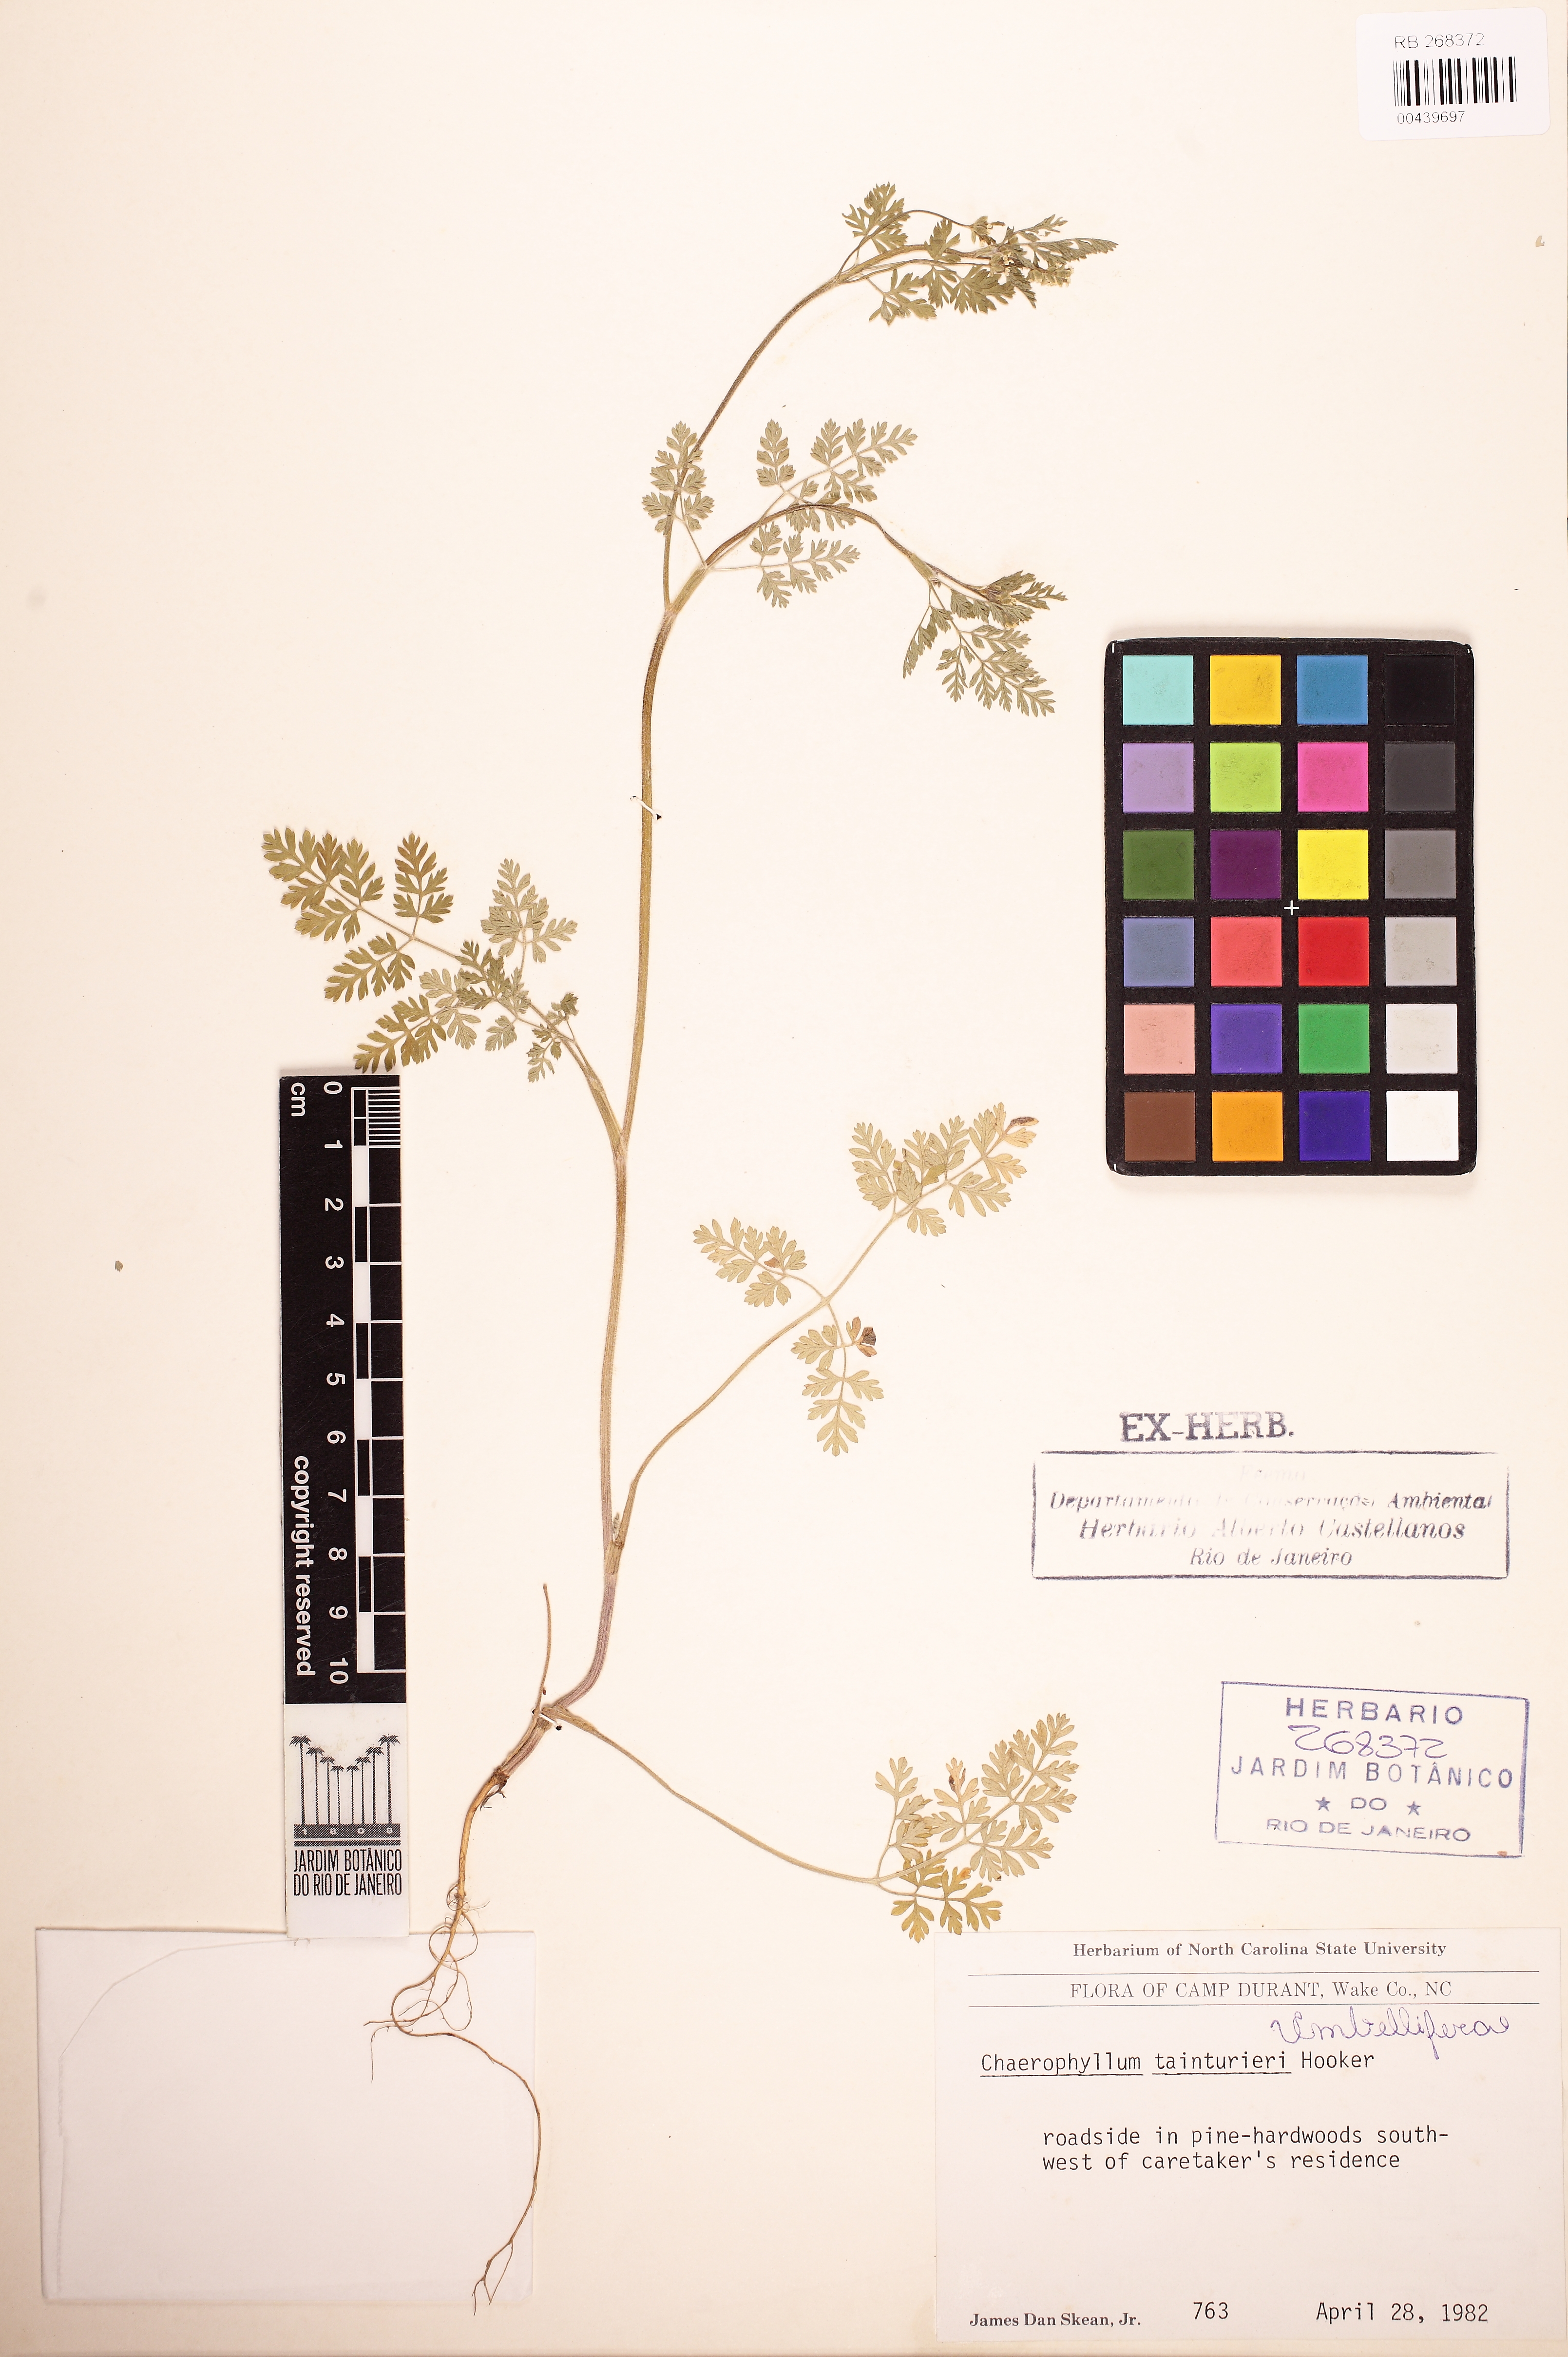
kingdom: Plantae
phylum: Tracheophyta
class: Magnoliopsida
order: Apiales
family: Apiaceae
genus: Chaerophyllum
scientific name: Chaerophyllum tainturieri
